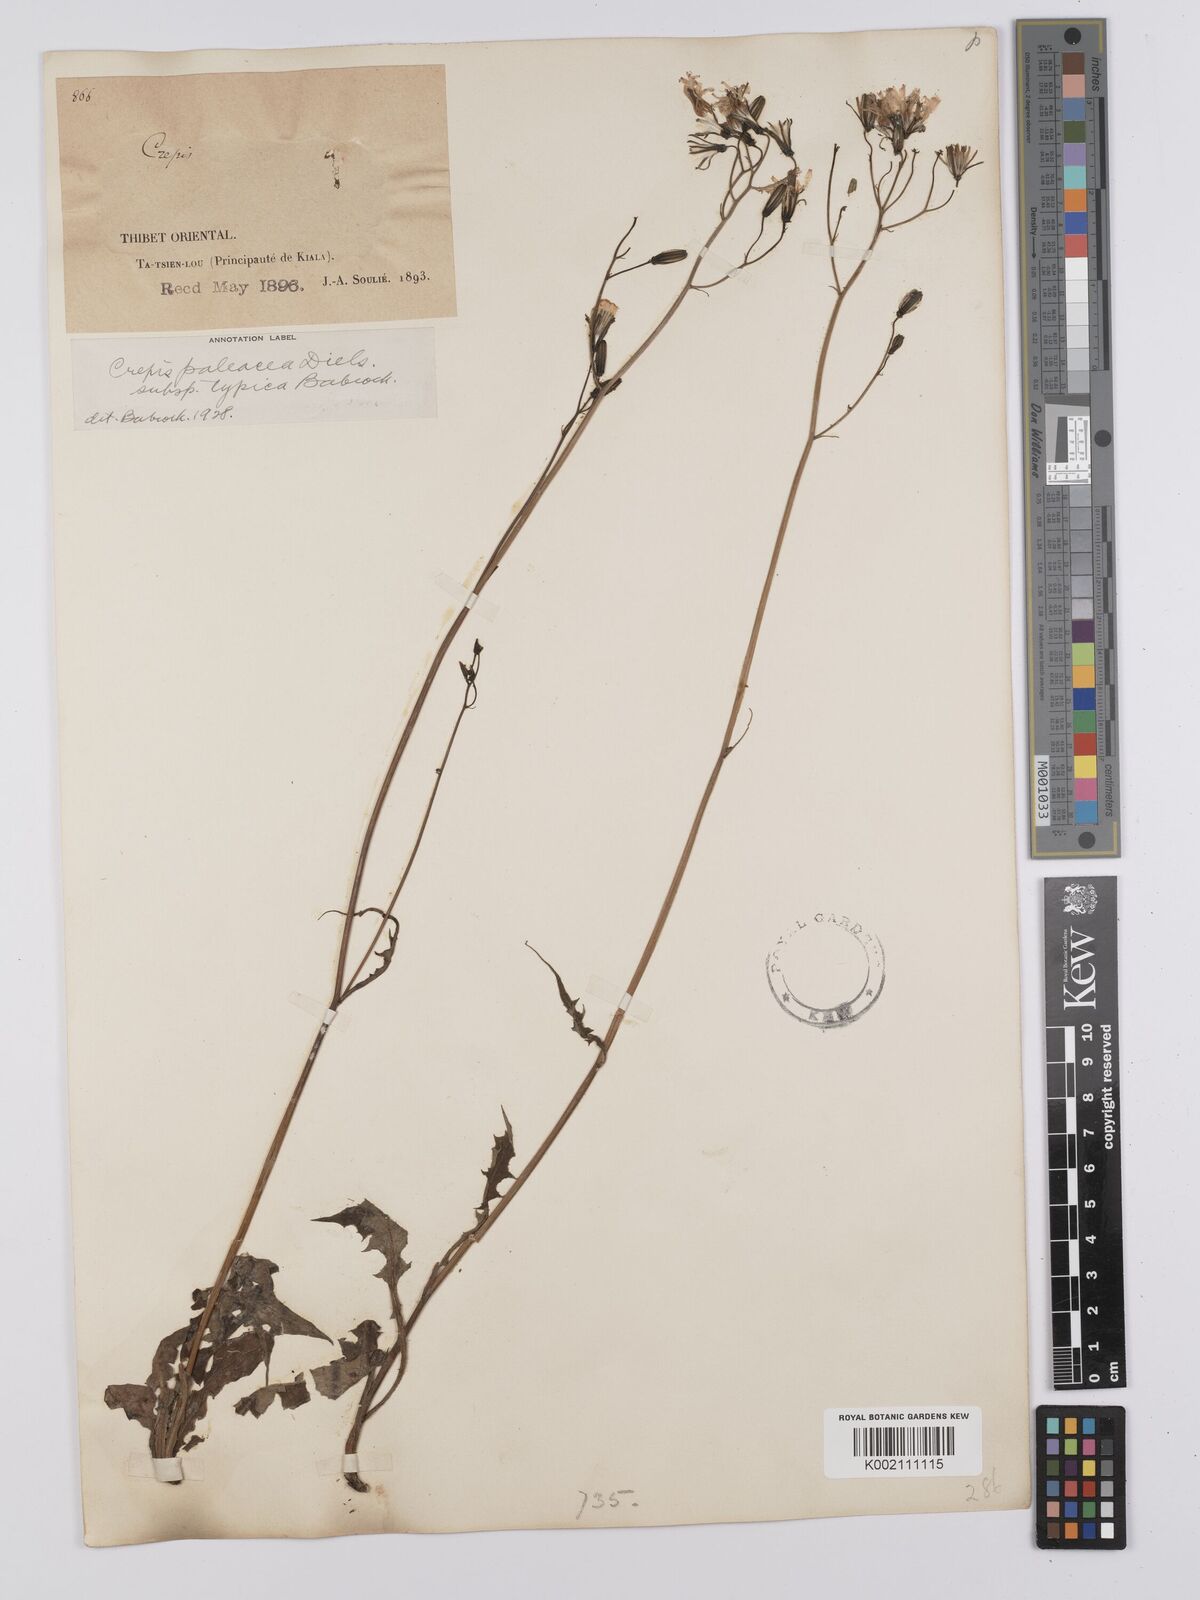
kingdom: Plantae
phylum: Tracheophyta
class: Magnoliopsida
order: Asterales
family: Asteraceae
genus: Youngia
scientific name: Youngia paleacea
